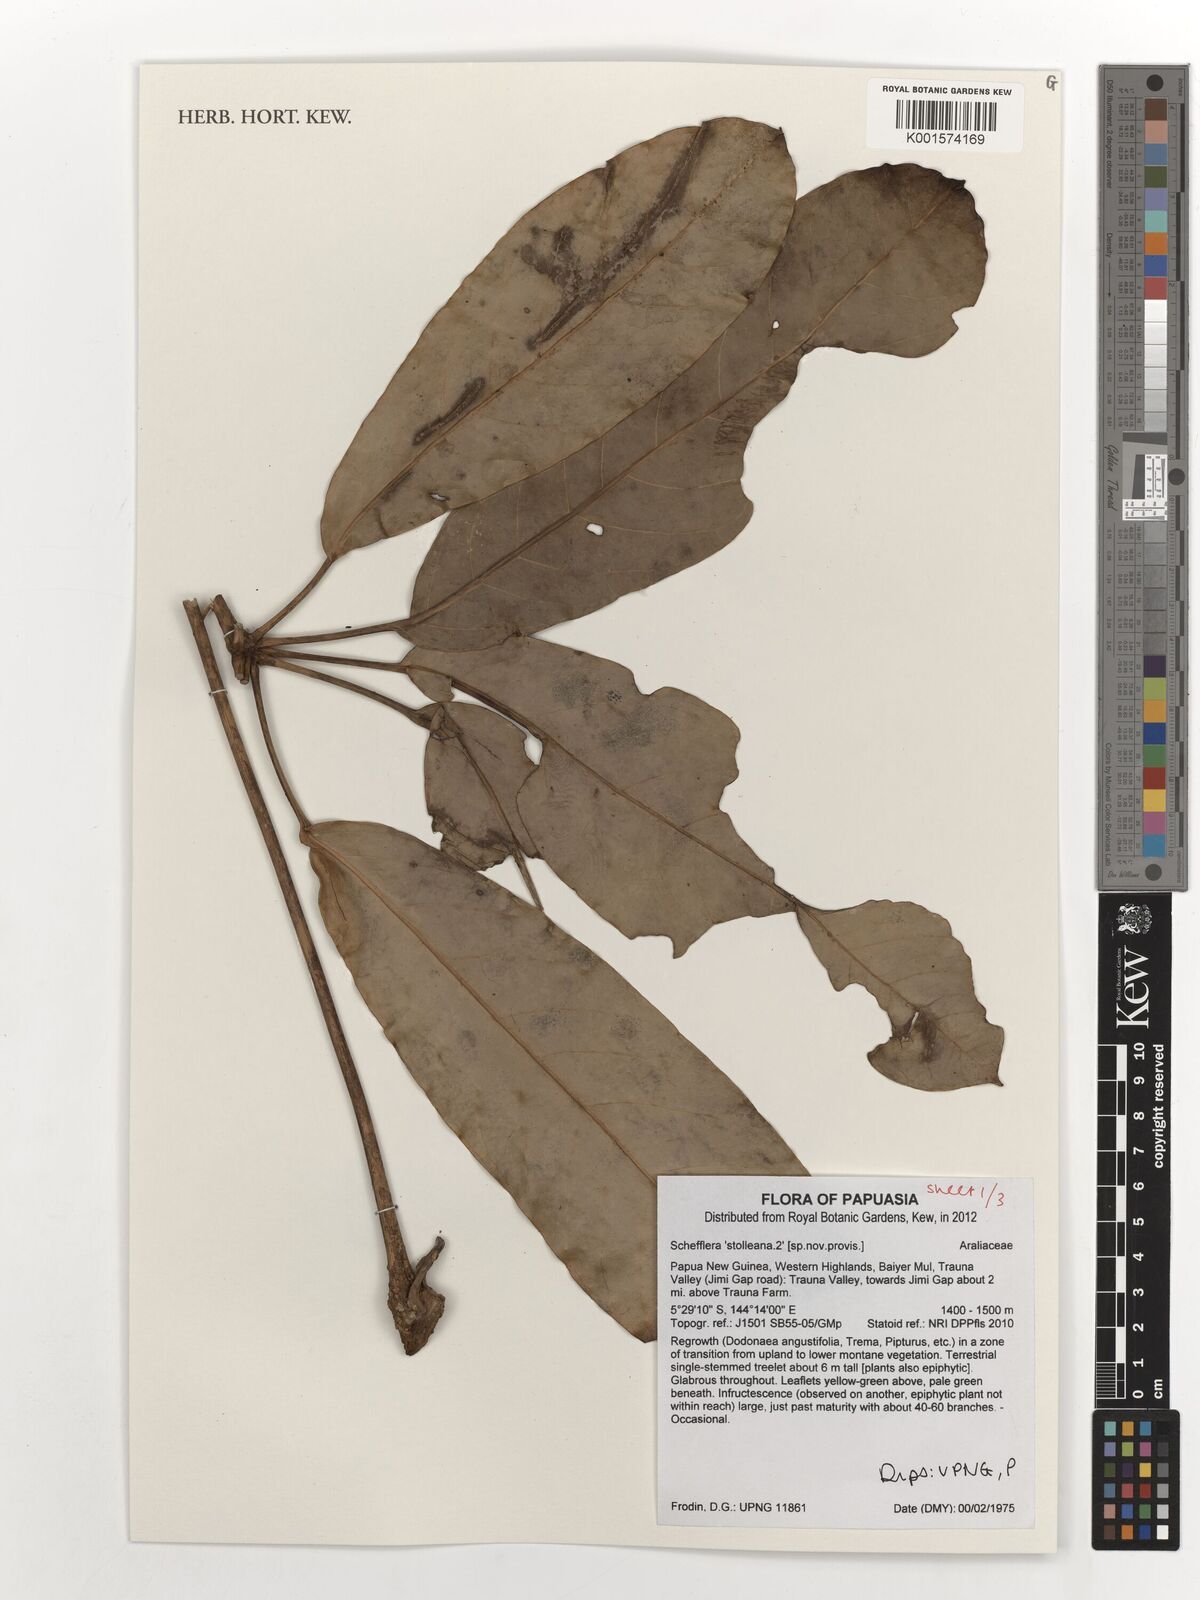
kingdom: Plantae
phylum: Tracheophyta
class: Magnoliopsida
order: Apiales
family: Araliaceae
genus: Heptapleurum
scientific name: Heptapleurum stolleanum
